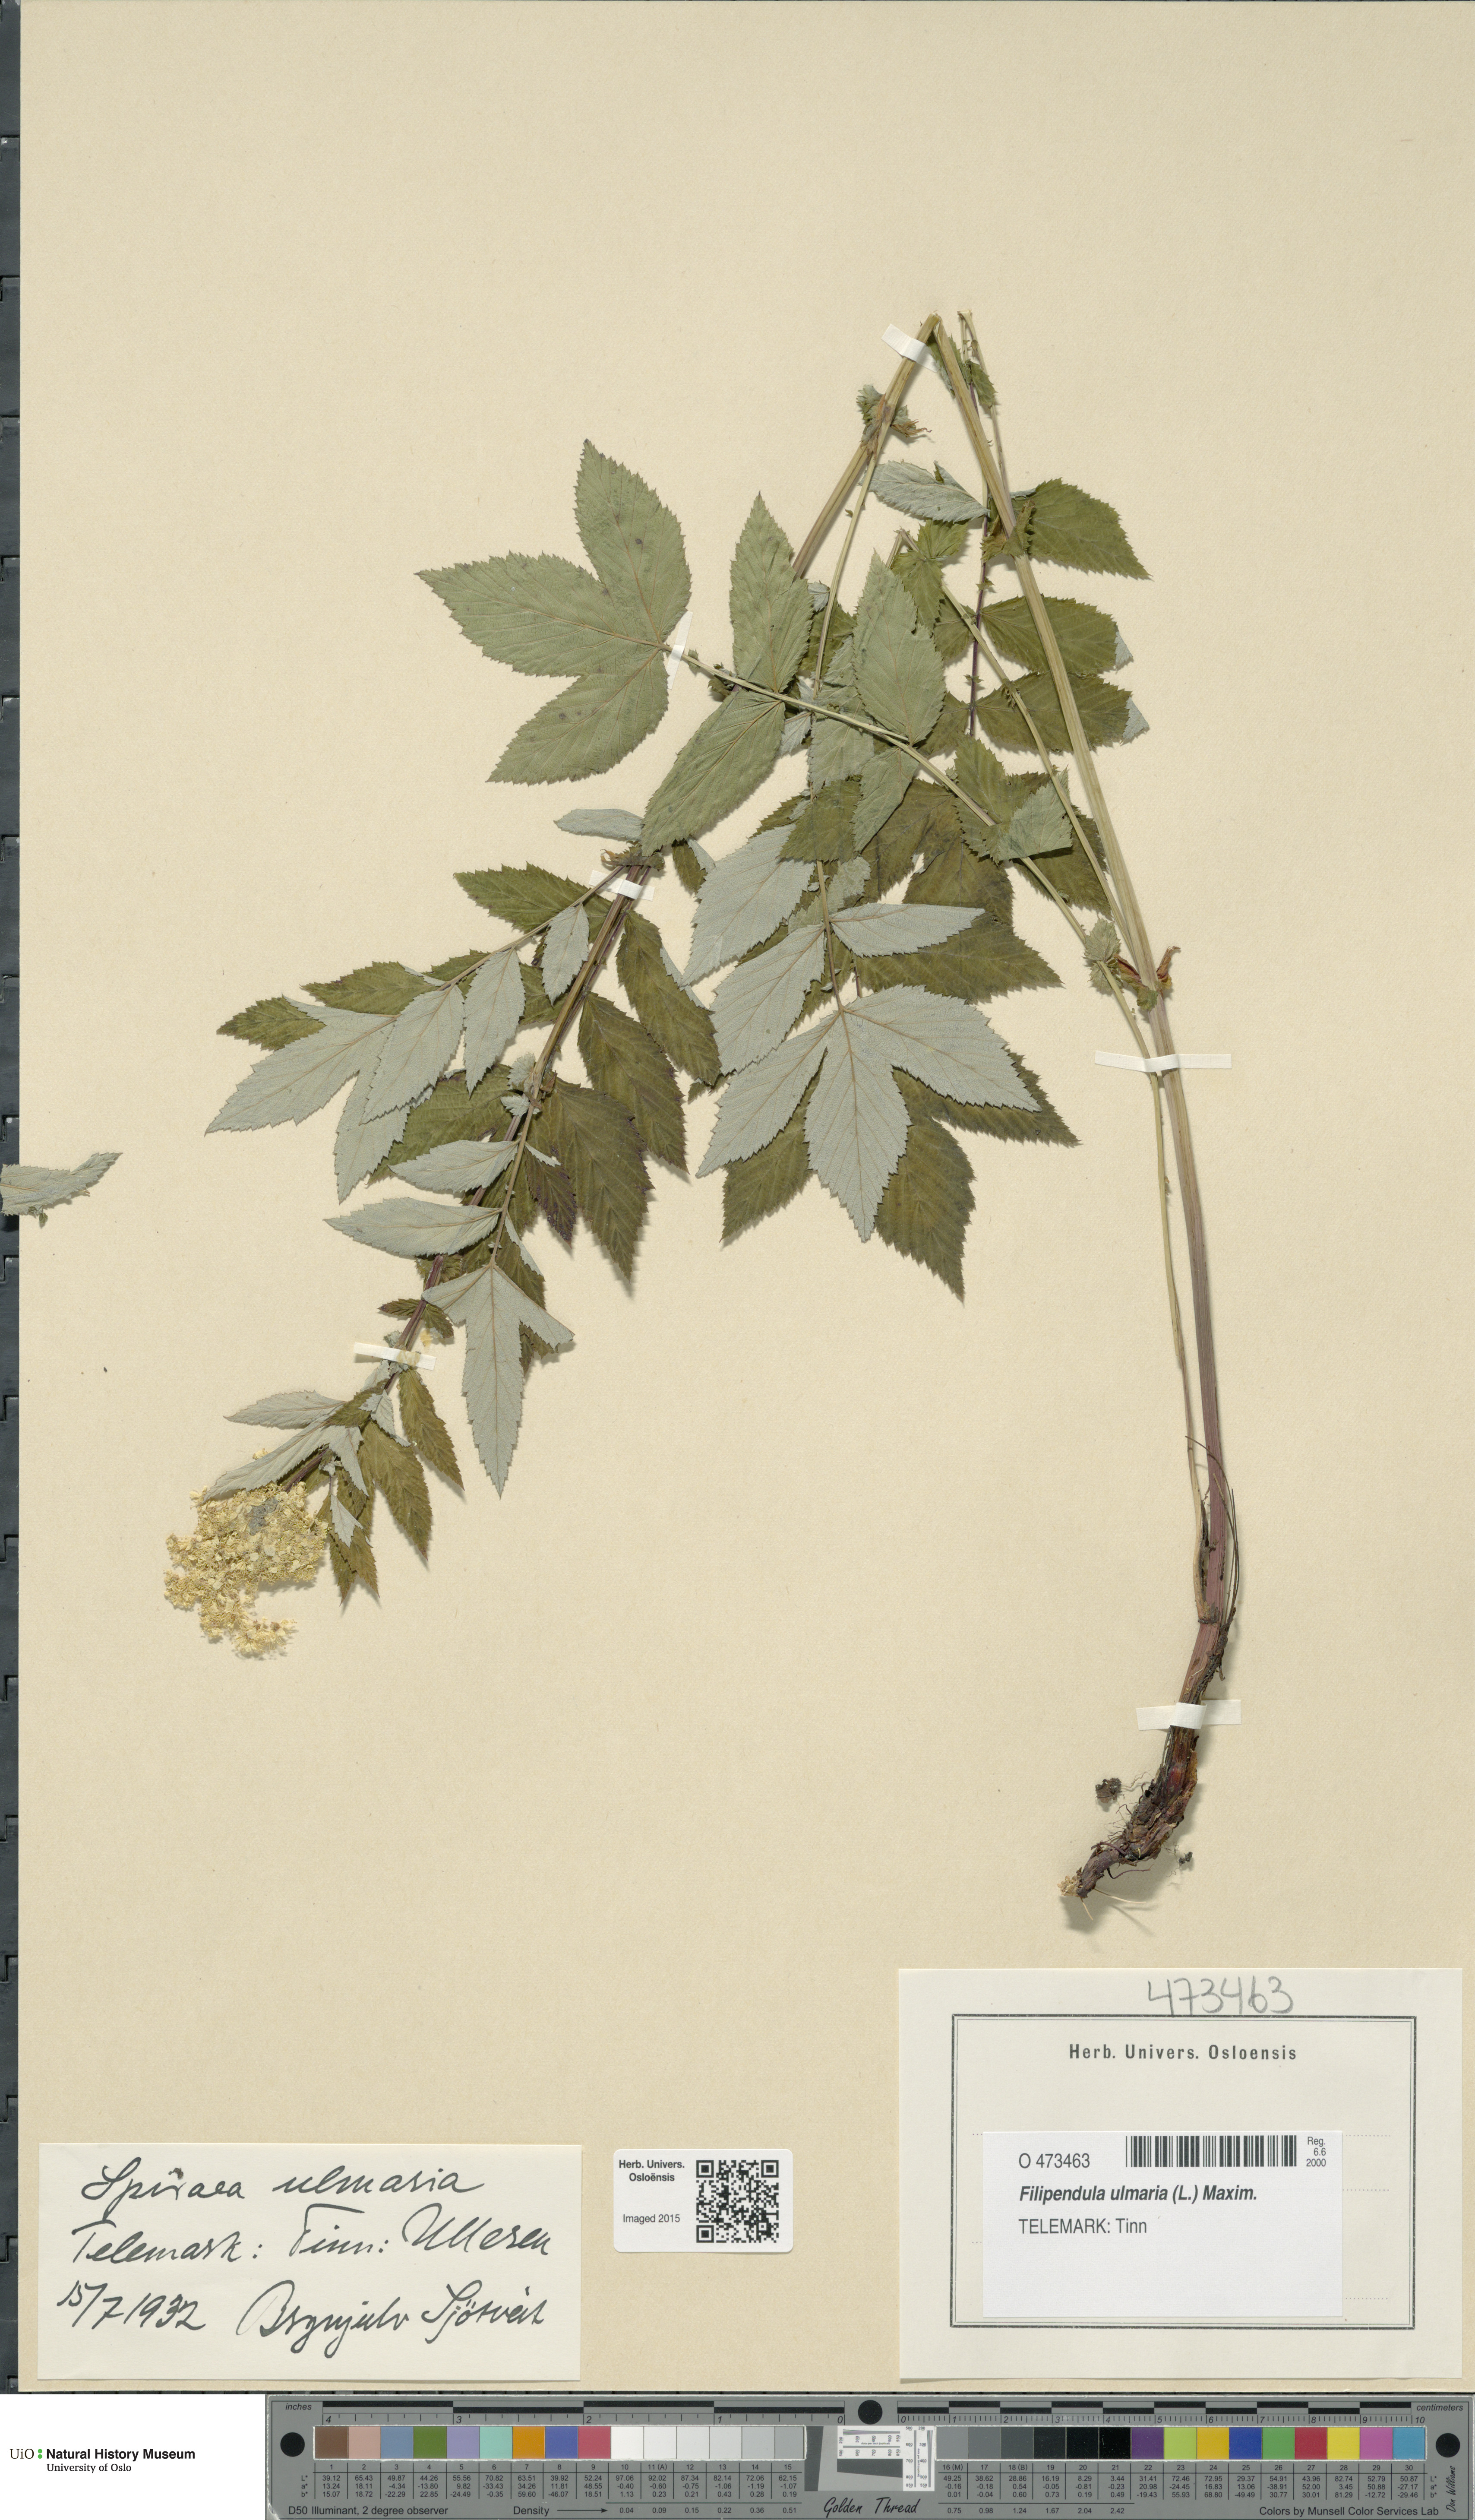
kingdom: Plantae
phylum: Tracheophyta
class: Magnoliopsida
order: Rosales
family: Rosaceae
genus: Filipendula
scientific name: Filipendula ulmaria
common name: Meadowsweet
